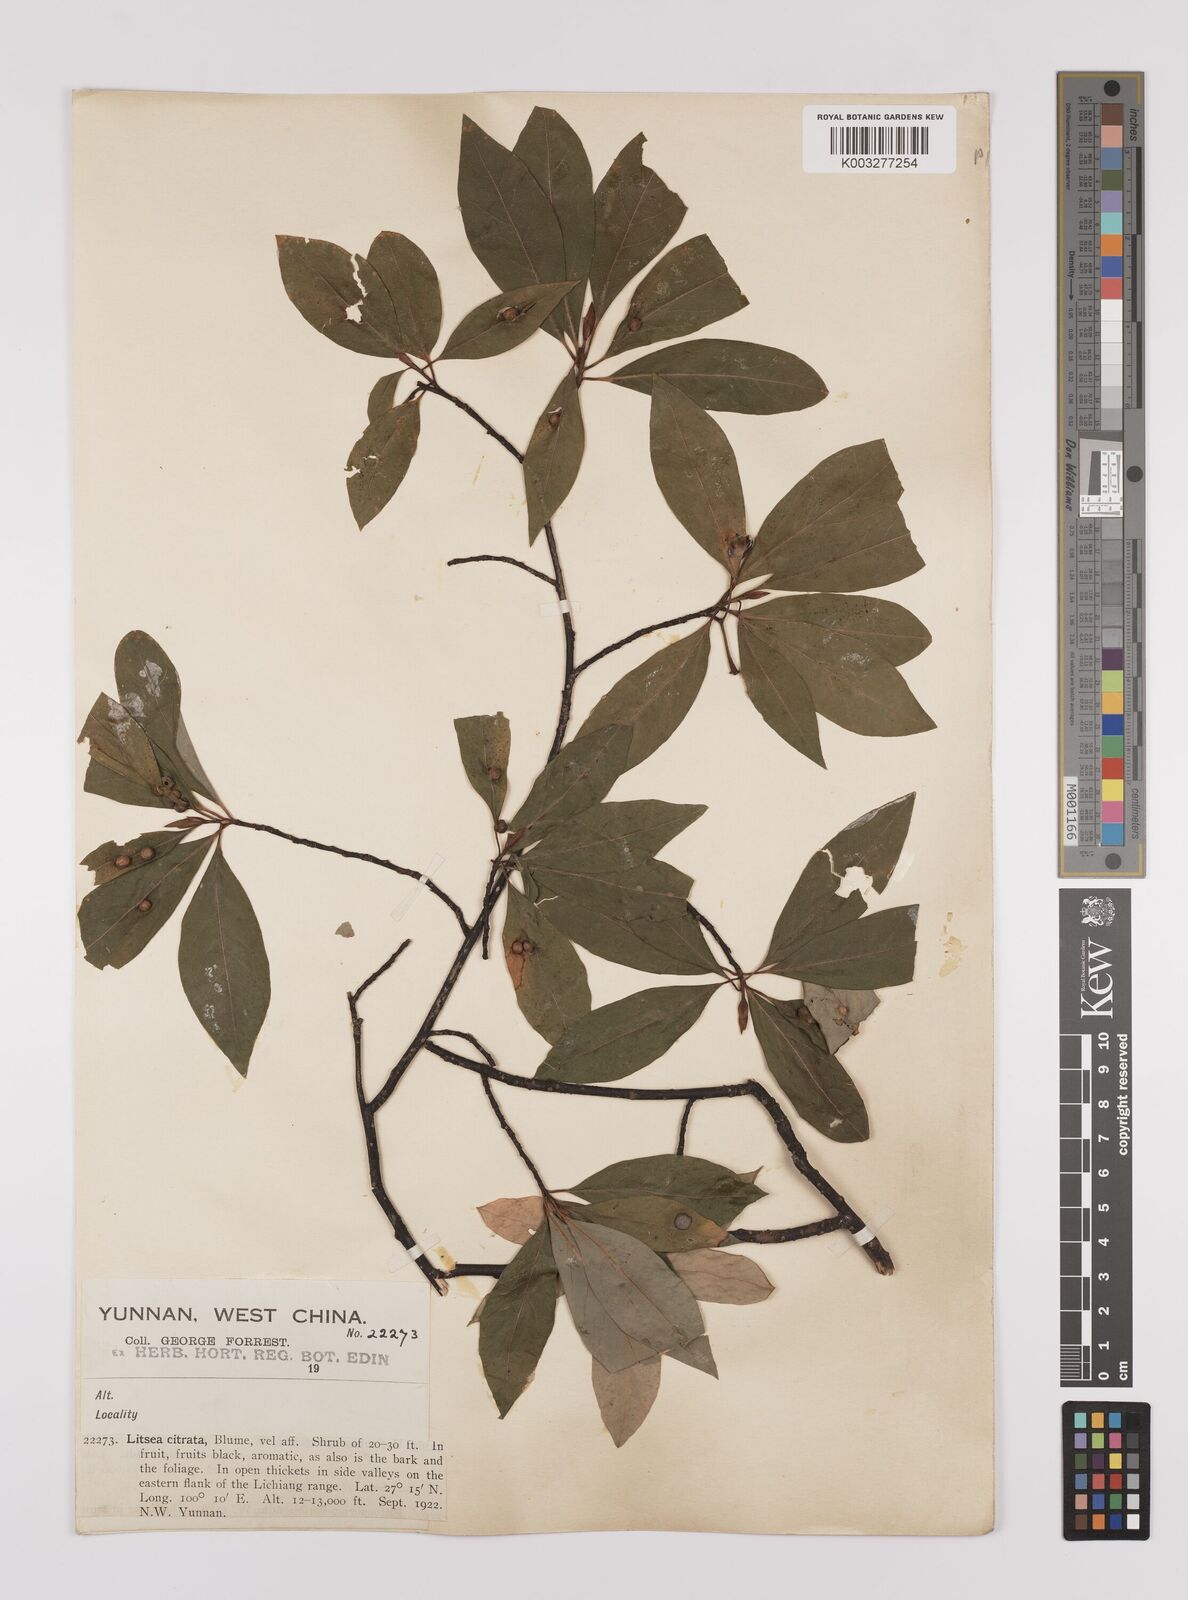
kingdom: Plantae
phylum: Tracheophyta
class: Magnoliopsida
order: Laurales
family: Lauraceae
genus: Litsea
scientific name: Litsea cubeba
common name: Mountain-pepper
